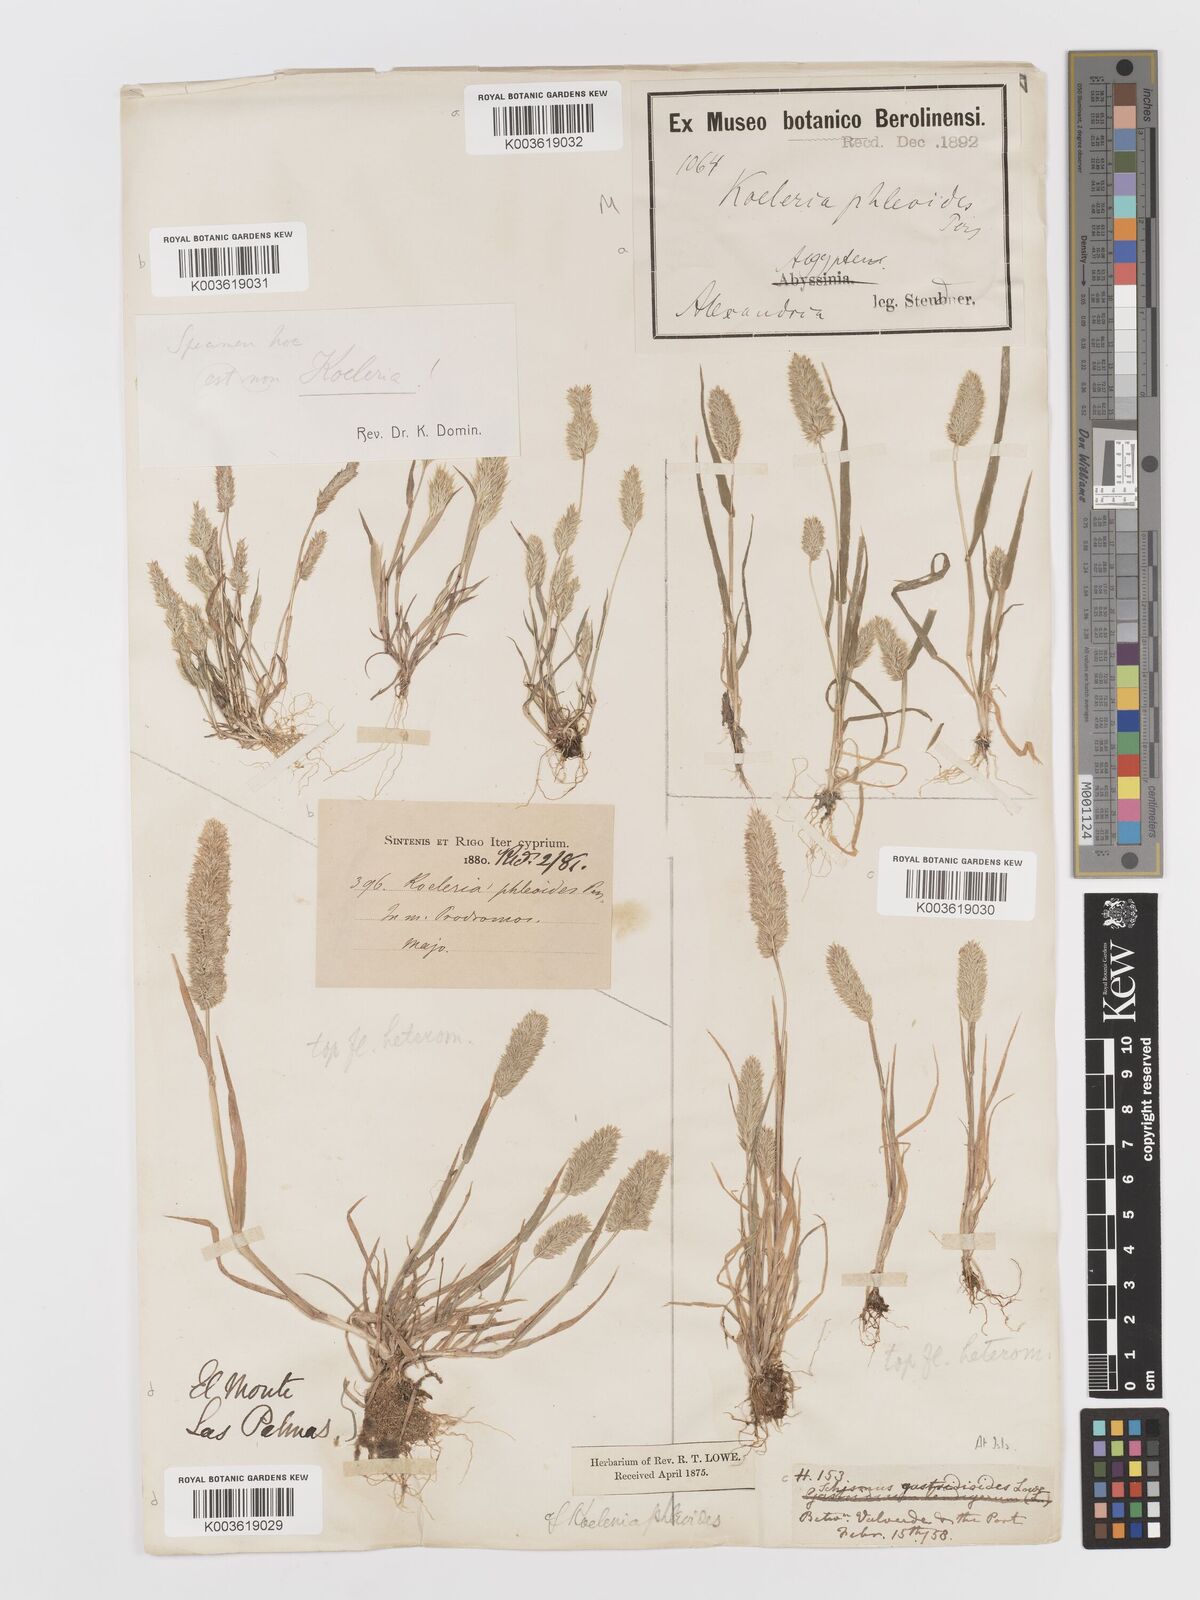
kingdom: Plantae
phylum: Tracheophyta
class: Liliopsida
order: Poales
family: Poaceae
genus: Rostraria
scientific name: Rostraria cristata
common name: Mediterranean hair-grass
